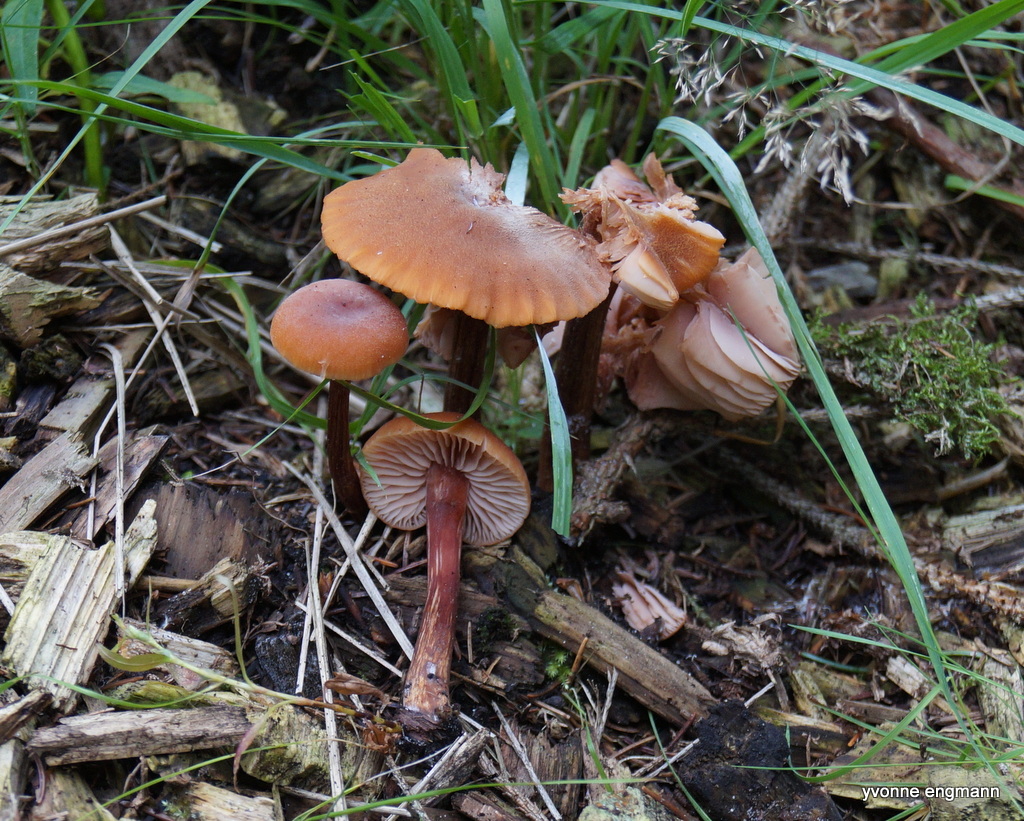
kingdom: Fungi
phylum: Basidiomycota
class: Agaricomycetes
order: Agaricales
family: Hydnangiaceae
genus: Laccaria
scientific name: Laccaria laccata
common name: rød ametysthat
